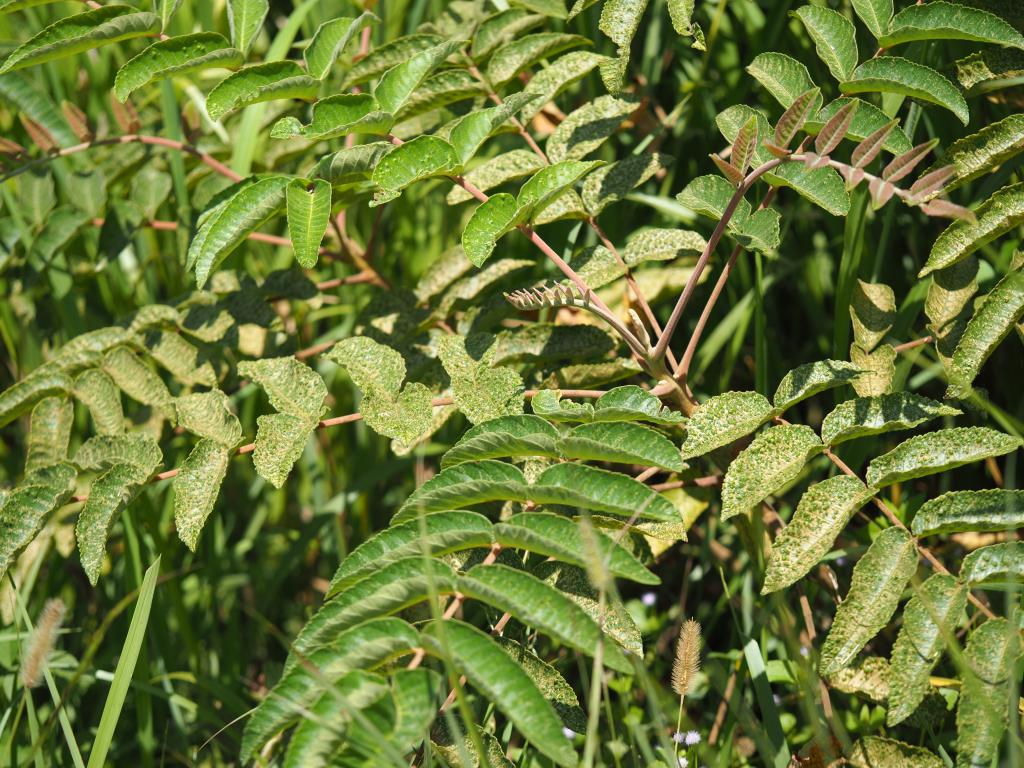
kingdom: Plantae
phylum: Tracheophyta
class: Magnoliopsida
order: Sapindales
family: Anacardiaceae
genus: Rhus
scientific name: Rhus chinensis
